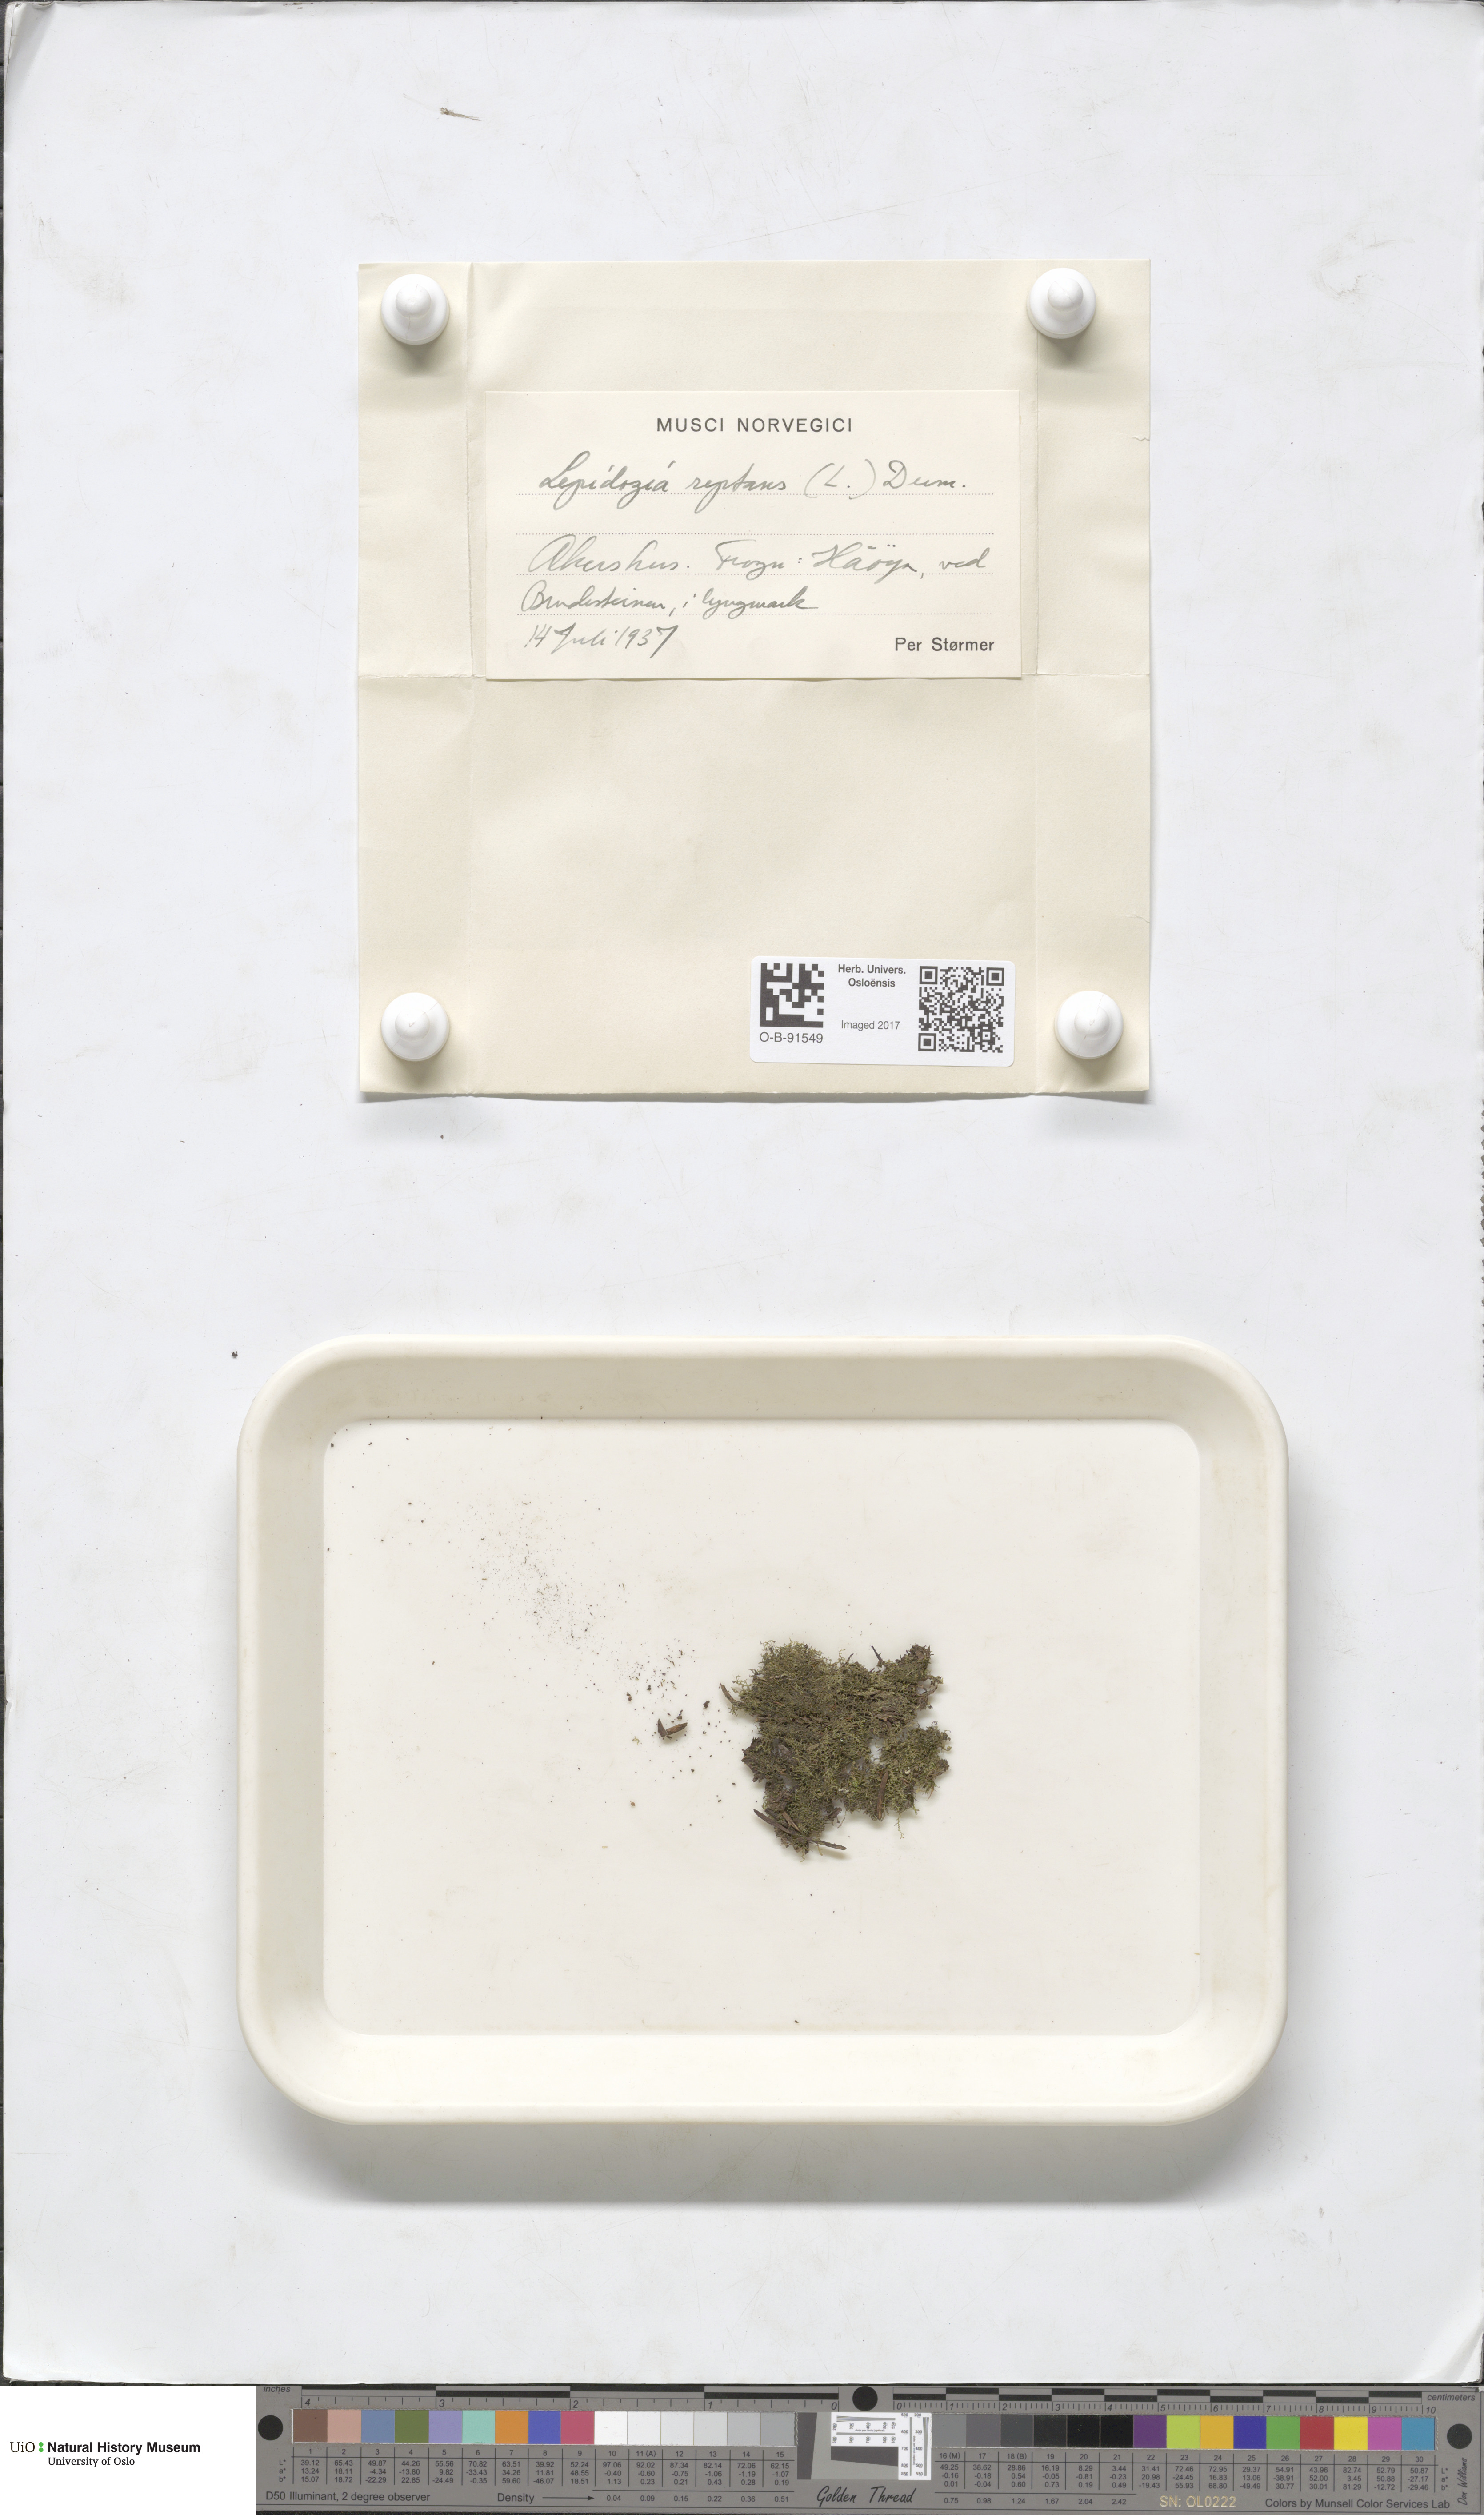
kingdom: Plantae
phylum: Marchantiophyta
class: Jungermanniopsida
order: Jungermanniales
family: Lepidoziaceae
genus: Lepidozia
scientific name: Lepidozia reptans
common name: Creeping fingerwort
